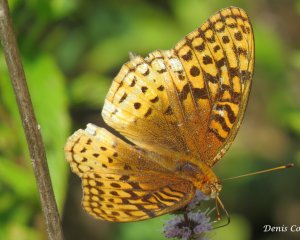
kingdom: Animalia
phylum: Arthropoda
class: Insecta
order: Lepidoptera
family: Nymphalidae
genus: Speyeria
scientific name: Speyeria aphrodite
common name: Aphrodite Fritillary
